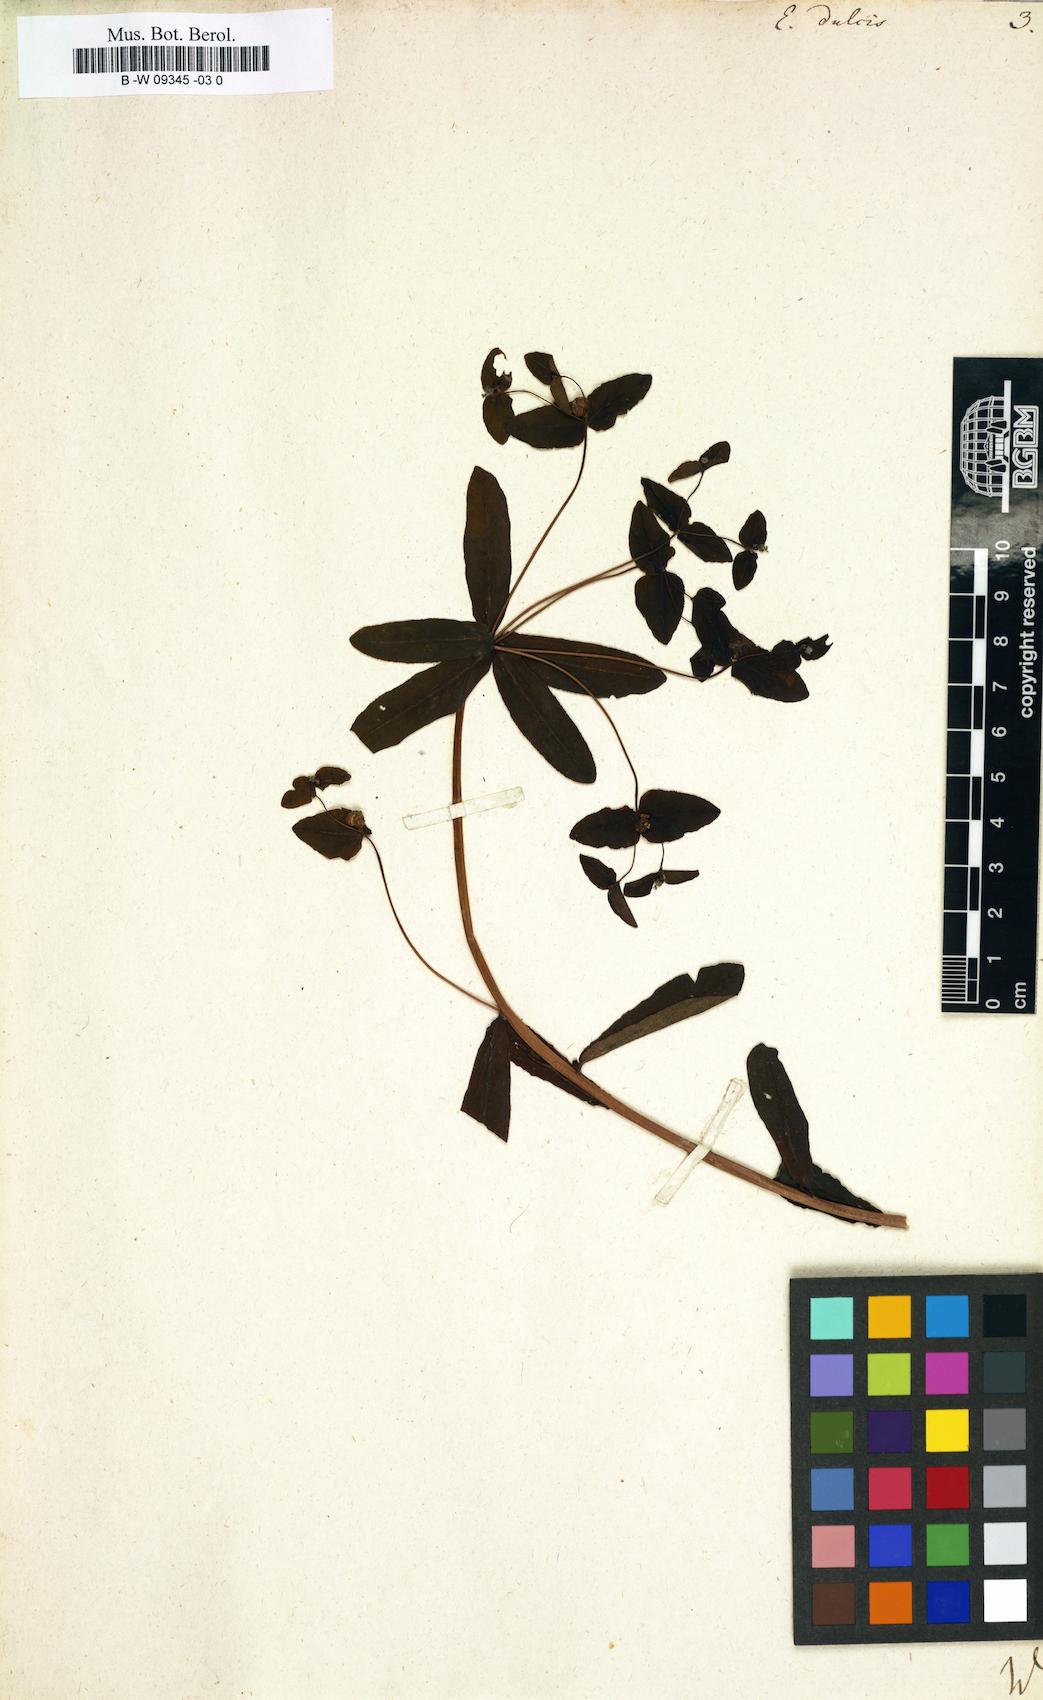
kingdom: Plantae
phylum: Tracheophyta
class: Magnoliopsida
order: Malpighiales
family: Euphorbiaceae
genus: Euphorbia
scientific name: Euphorbia dulcis
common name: Sweet spurge
